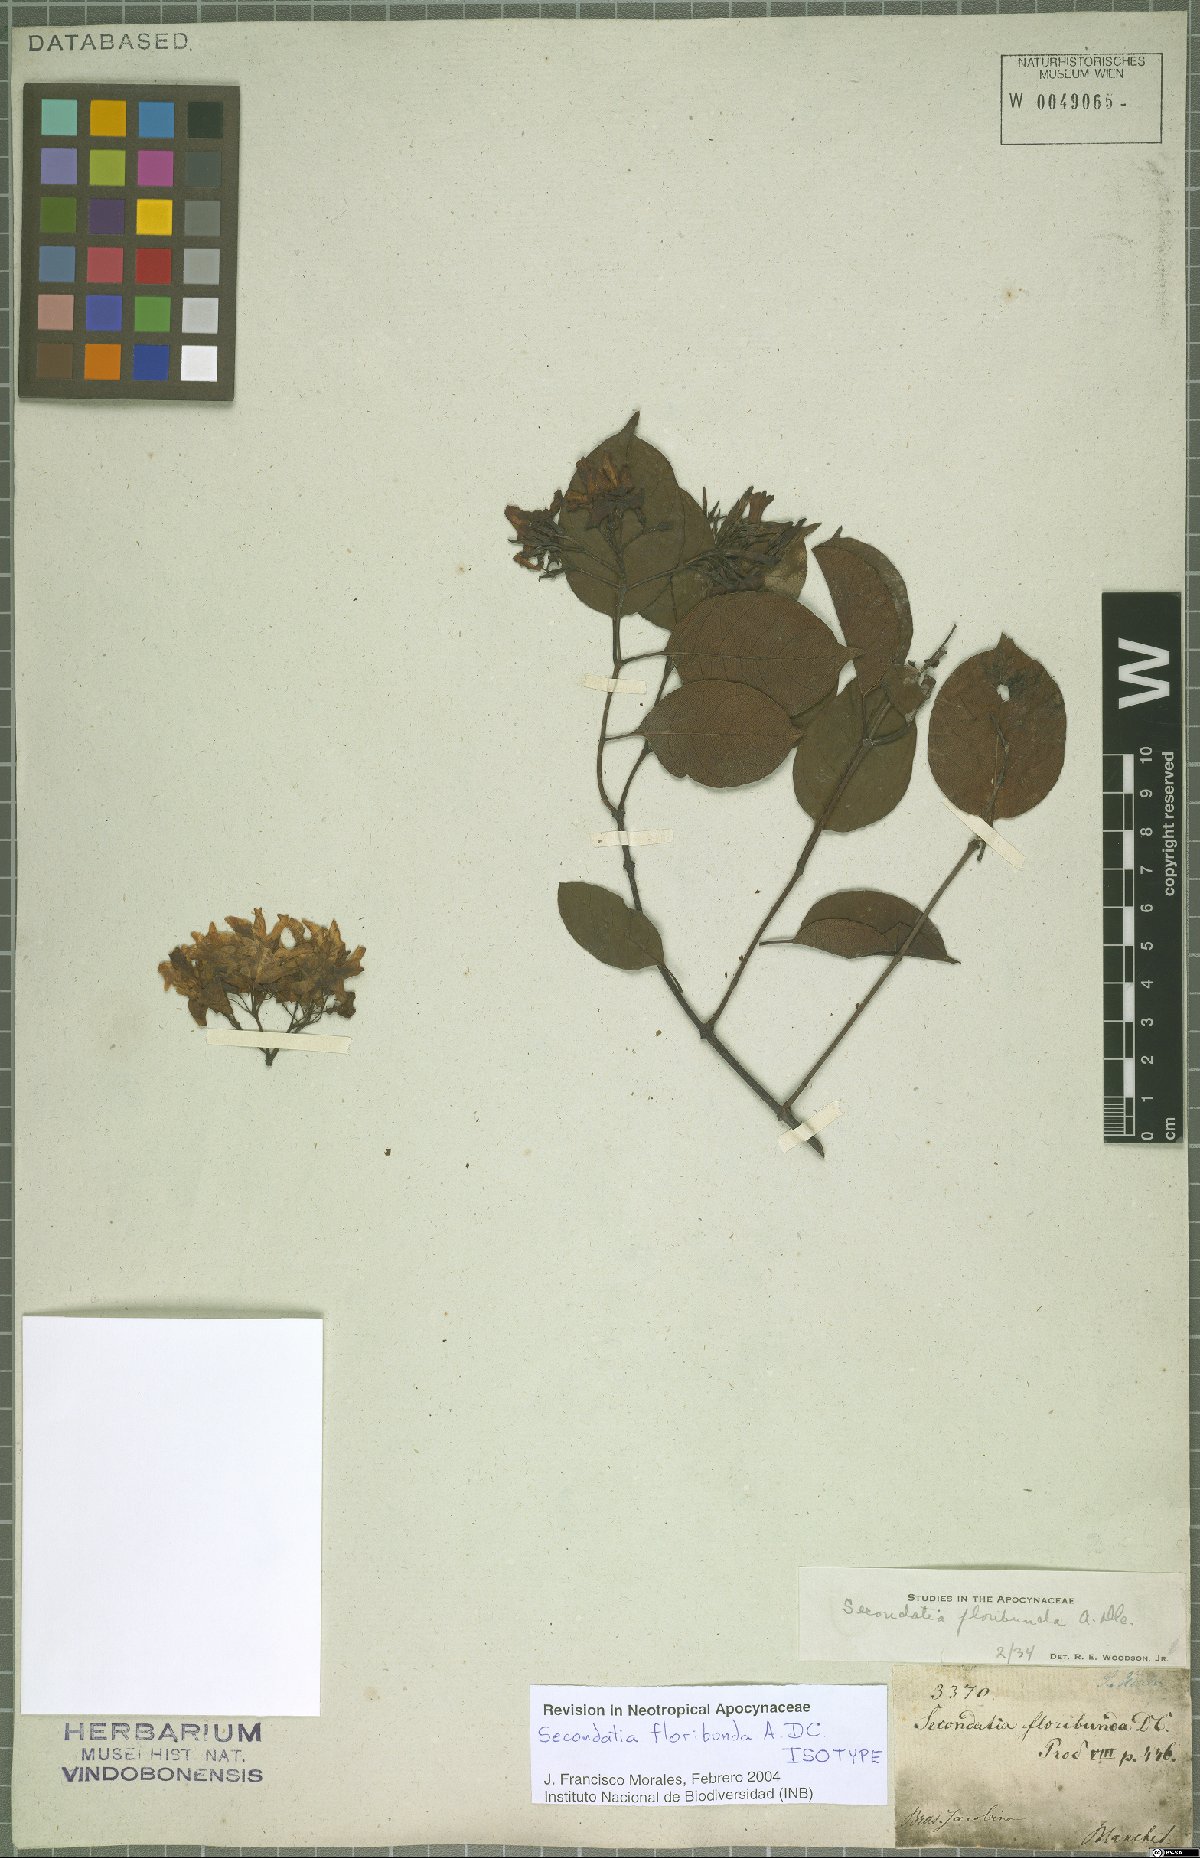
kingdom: Plantae
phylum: Tracheophyta
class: Magnoliopsida
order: Gentianales
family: Apocynaceae
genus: Secondatia
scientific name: Secondatia floribunda
